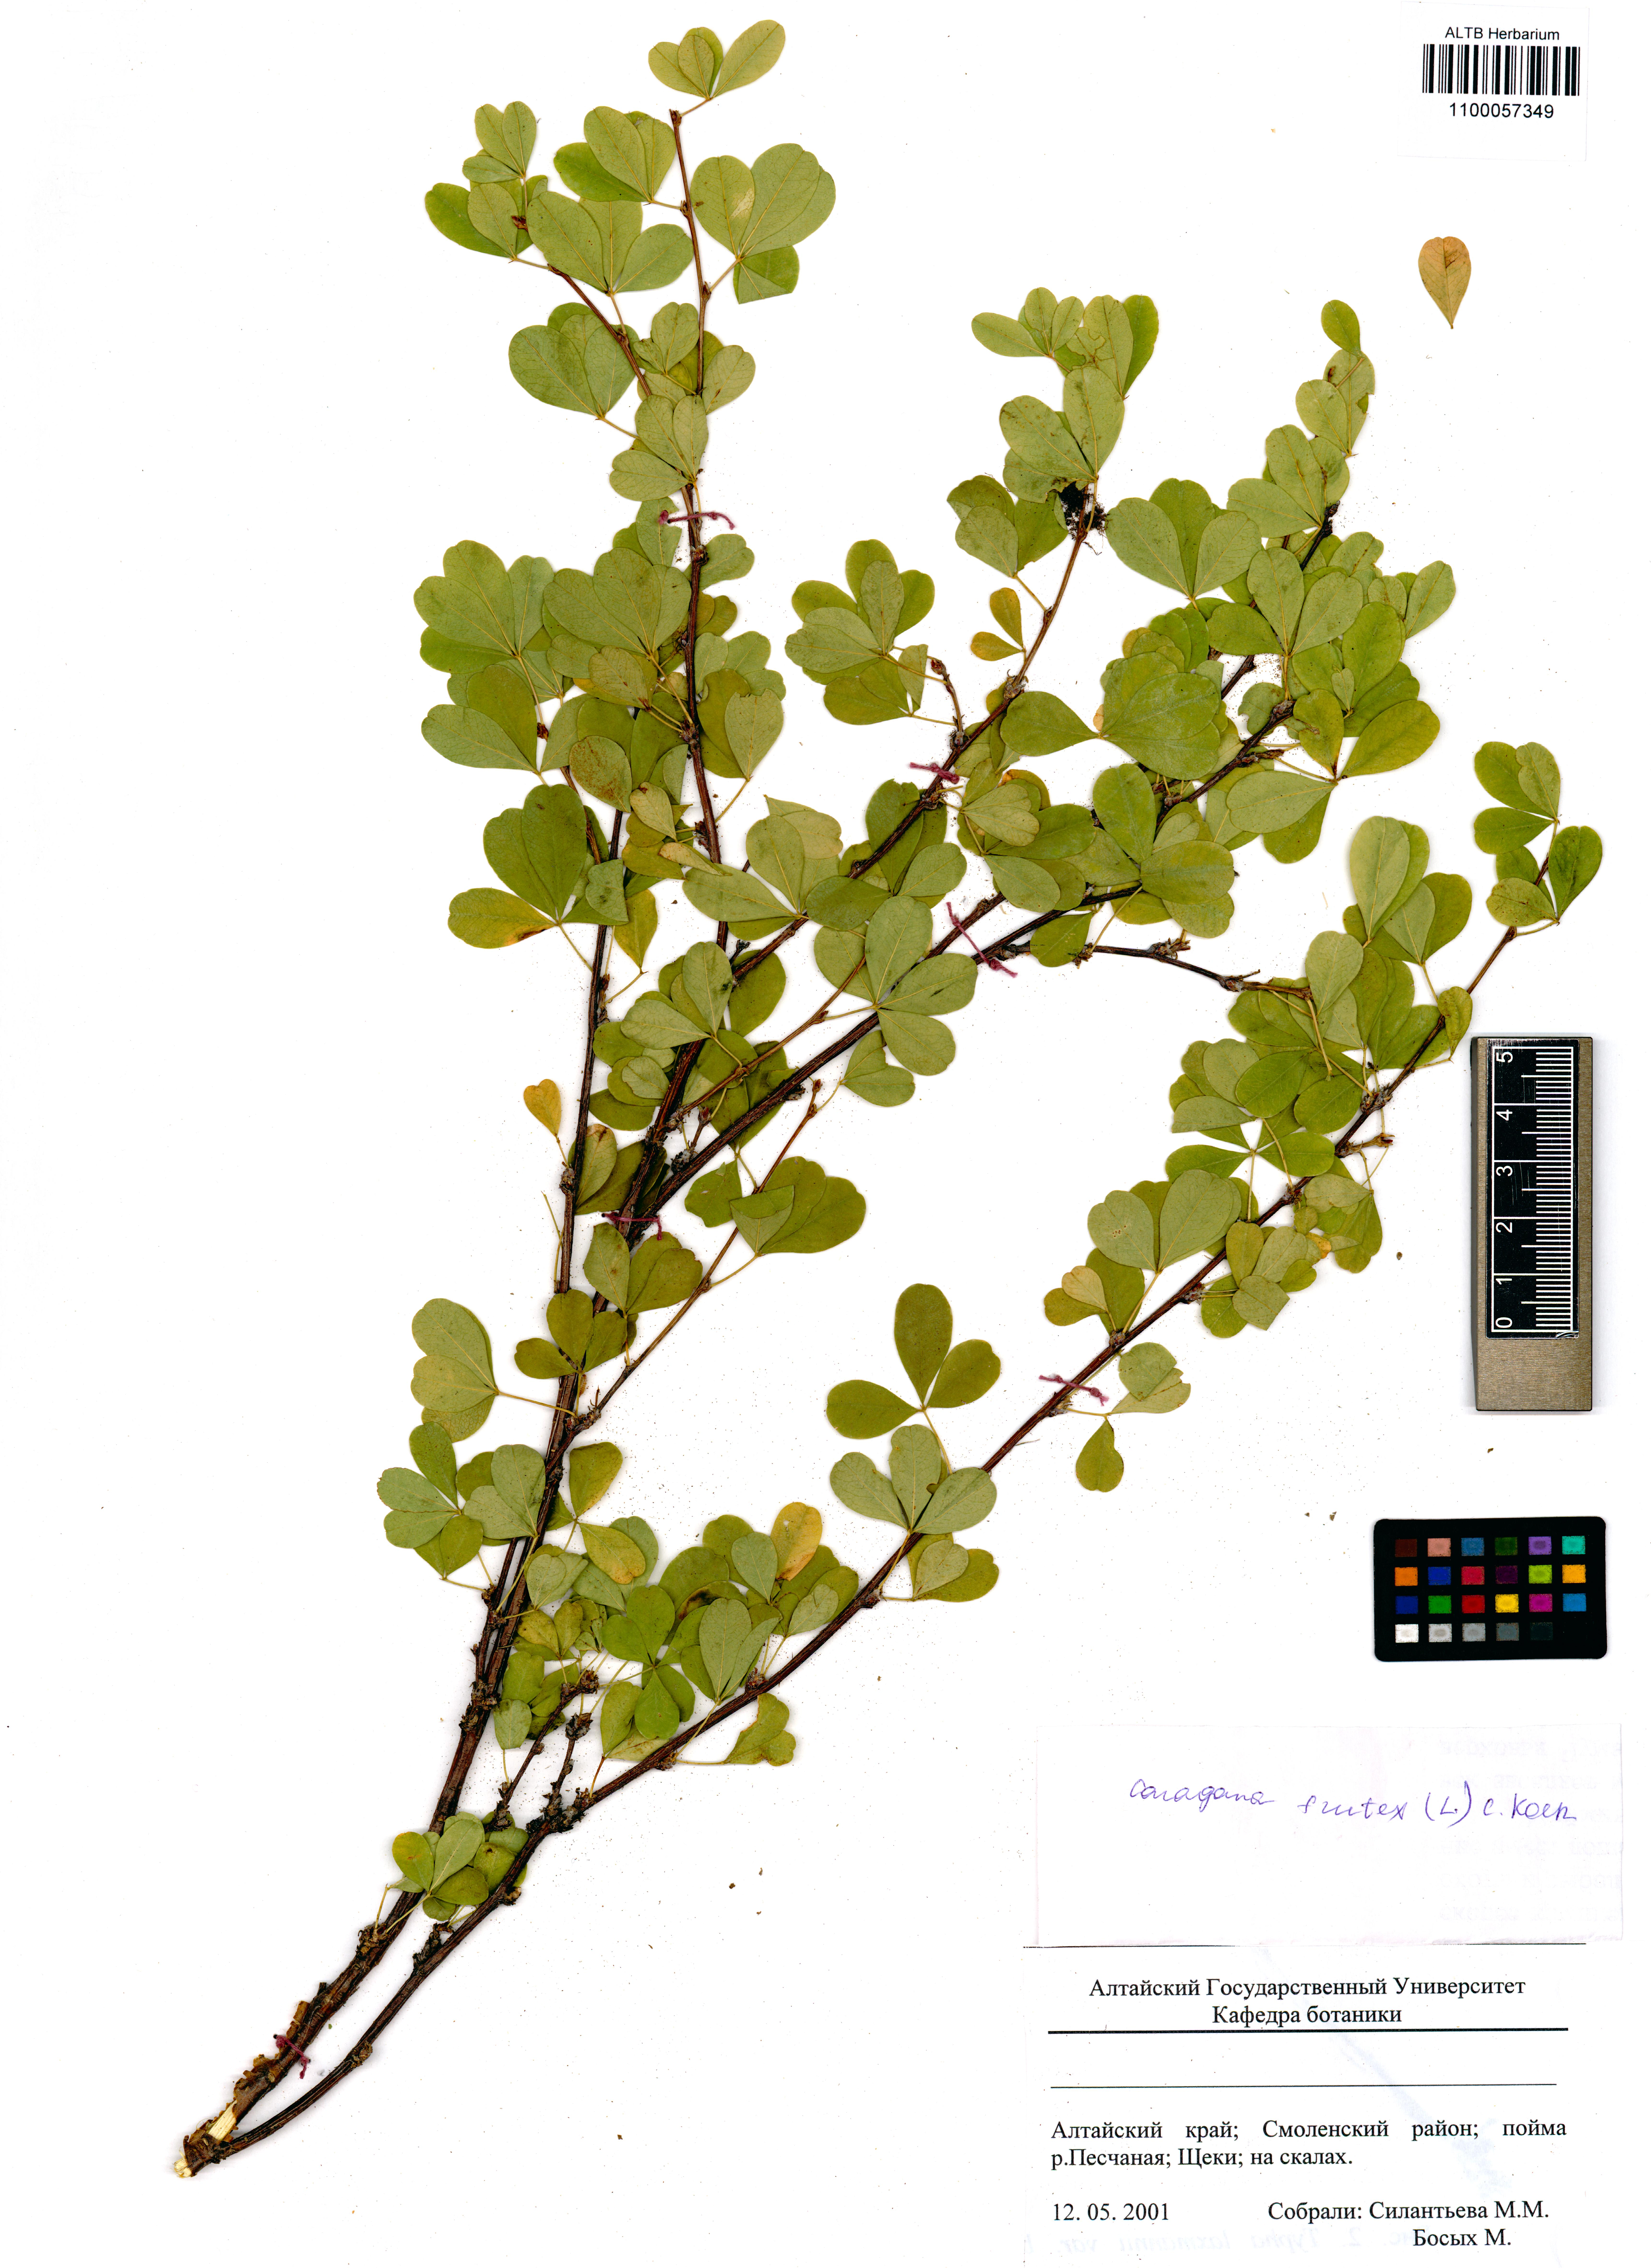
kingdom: Plantae
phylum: Tracheophyta
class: Magnoliopsida
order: Fabales
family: Fabaceae
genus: Caragana
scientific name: Caragana frutex
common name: Russian peashrub
